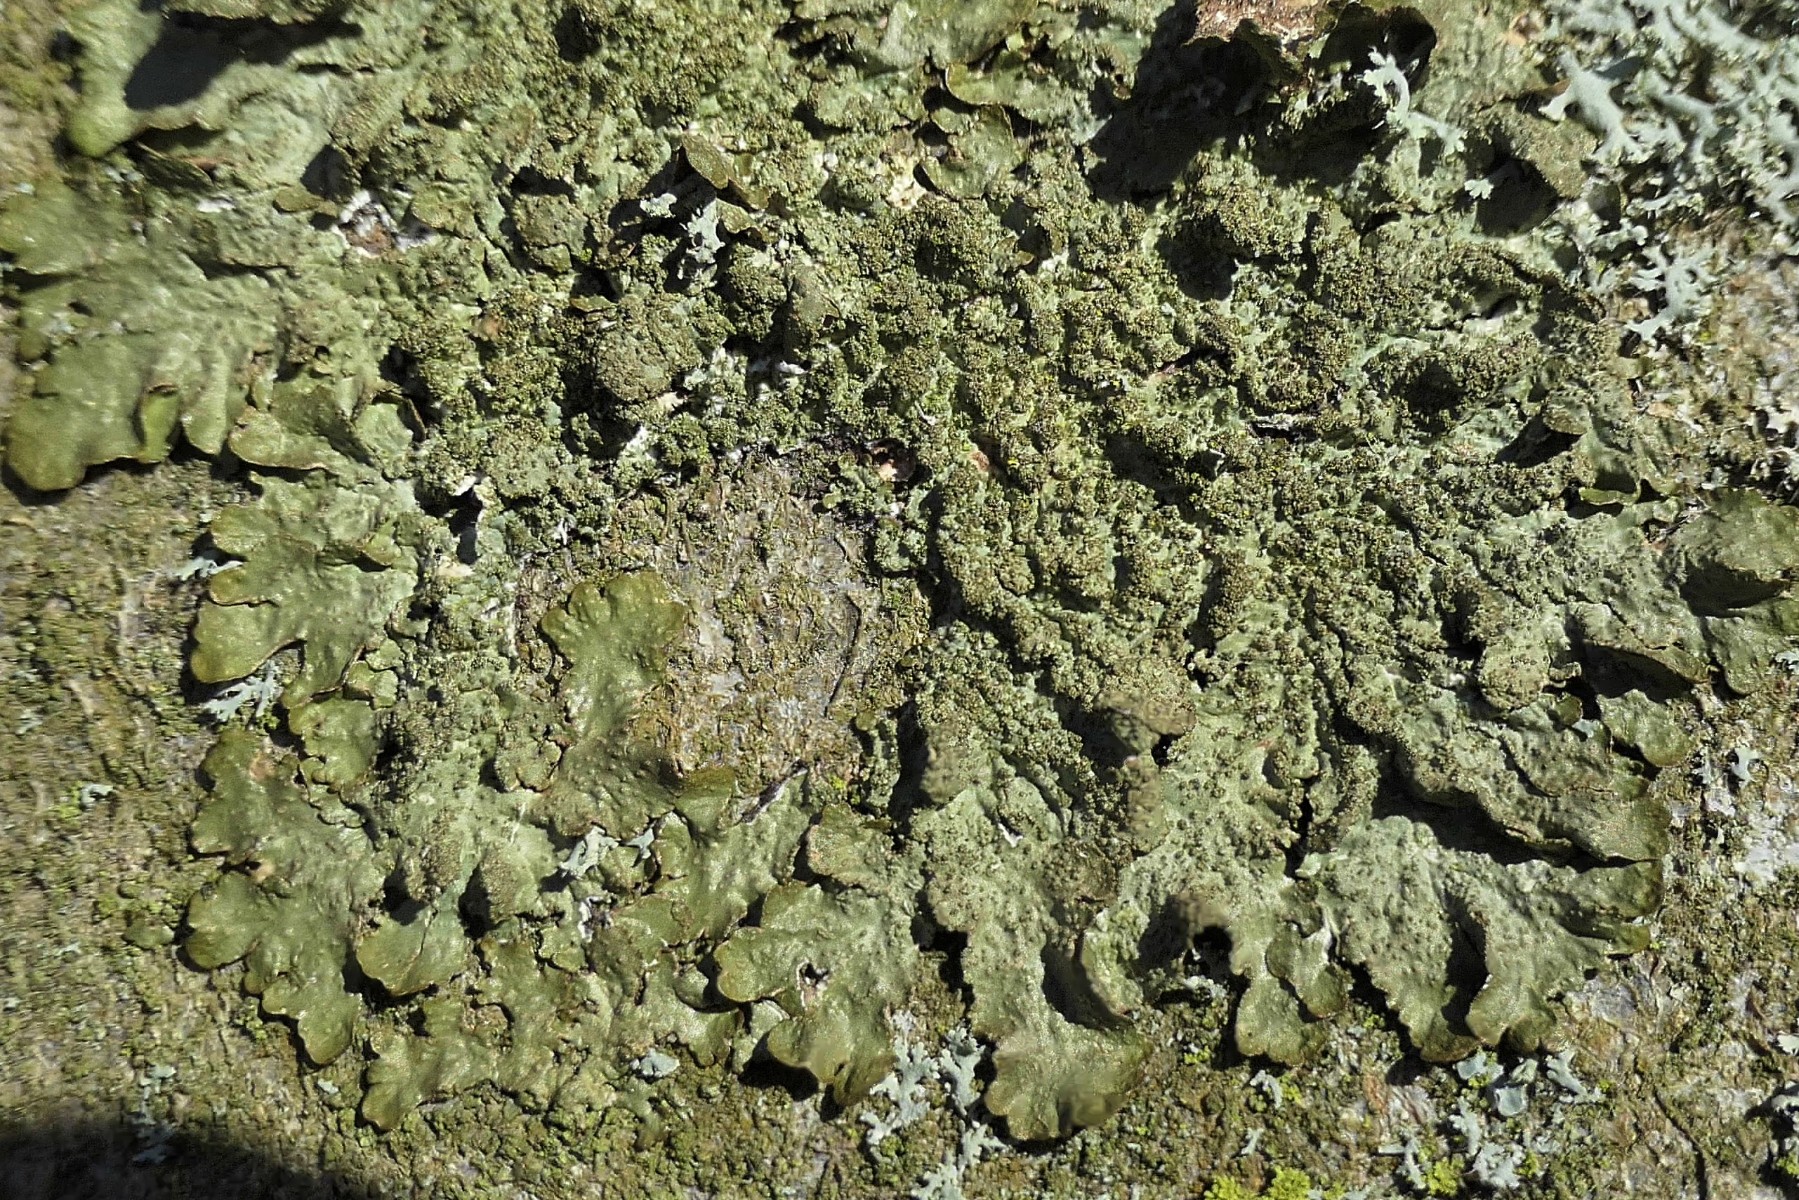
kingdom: Fungi
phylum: Ascomycota
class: Lecanoromycetes
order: Lecanorales
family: Parmeliaceae
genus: Melanelixia
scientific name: Melanelixia glabratula
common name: glinsende skållav
